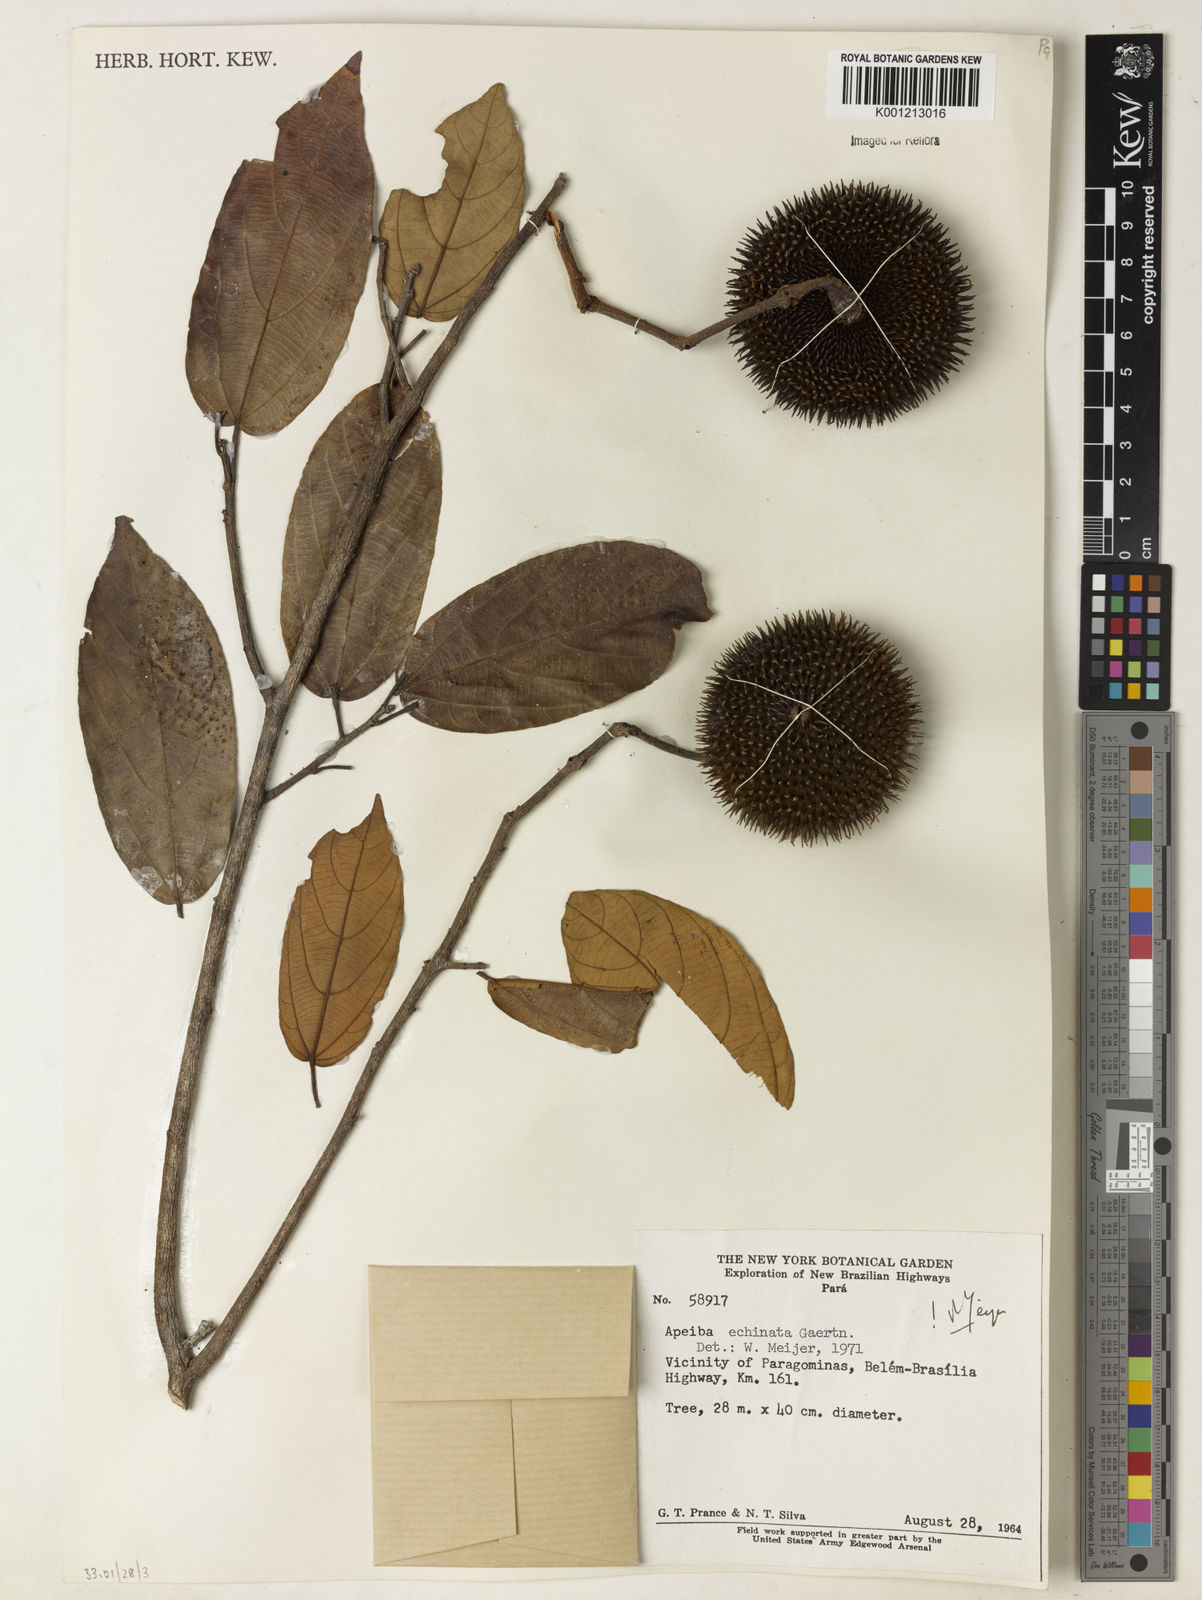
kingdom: Plantae
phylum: Tracheophyta
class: Magnoliopsida
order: Malvales
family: Malvaceae
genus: Apeiba
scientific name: Apeiba petoumo
